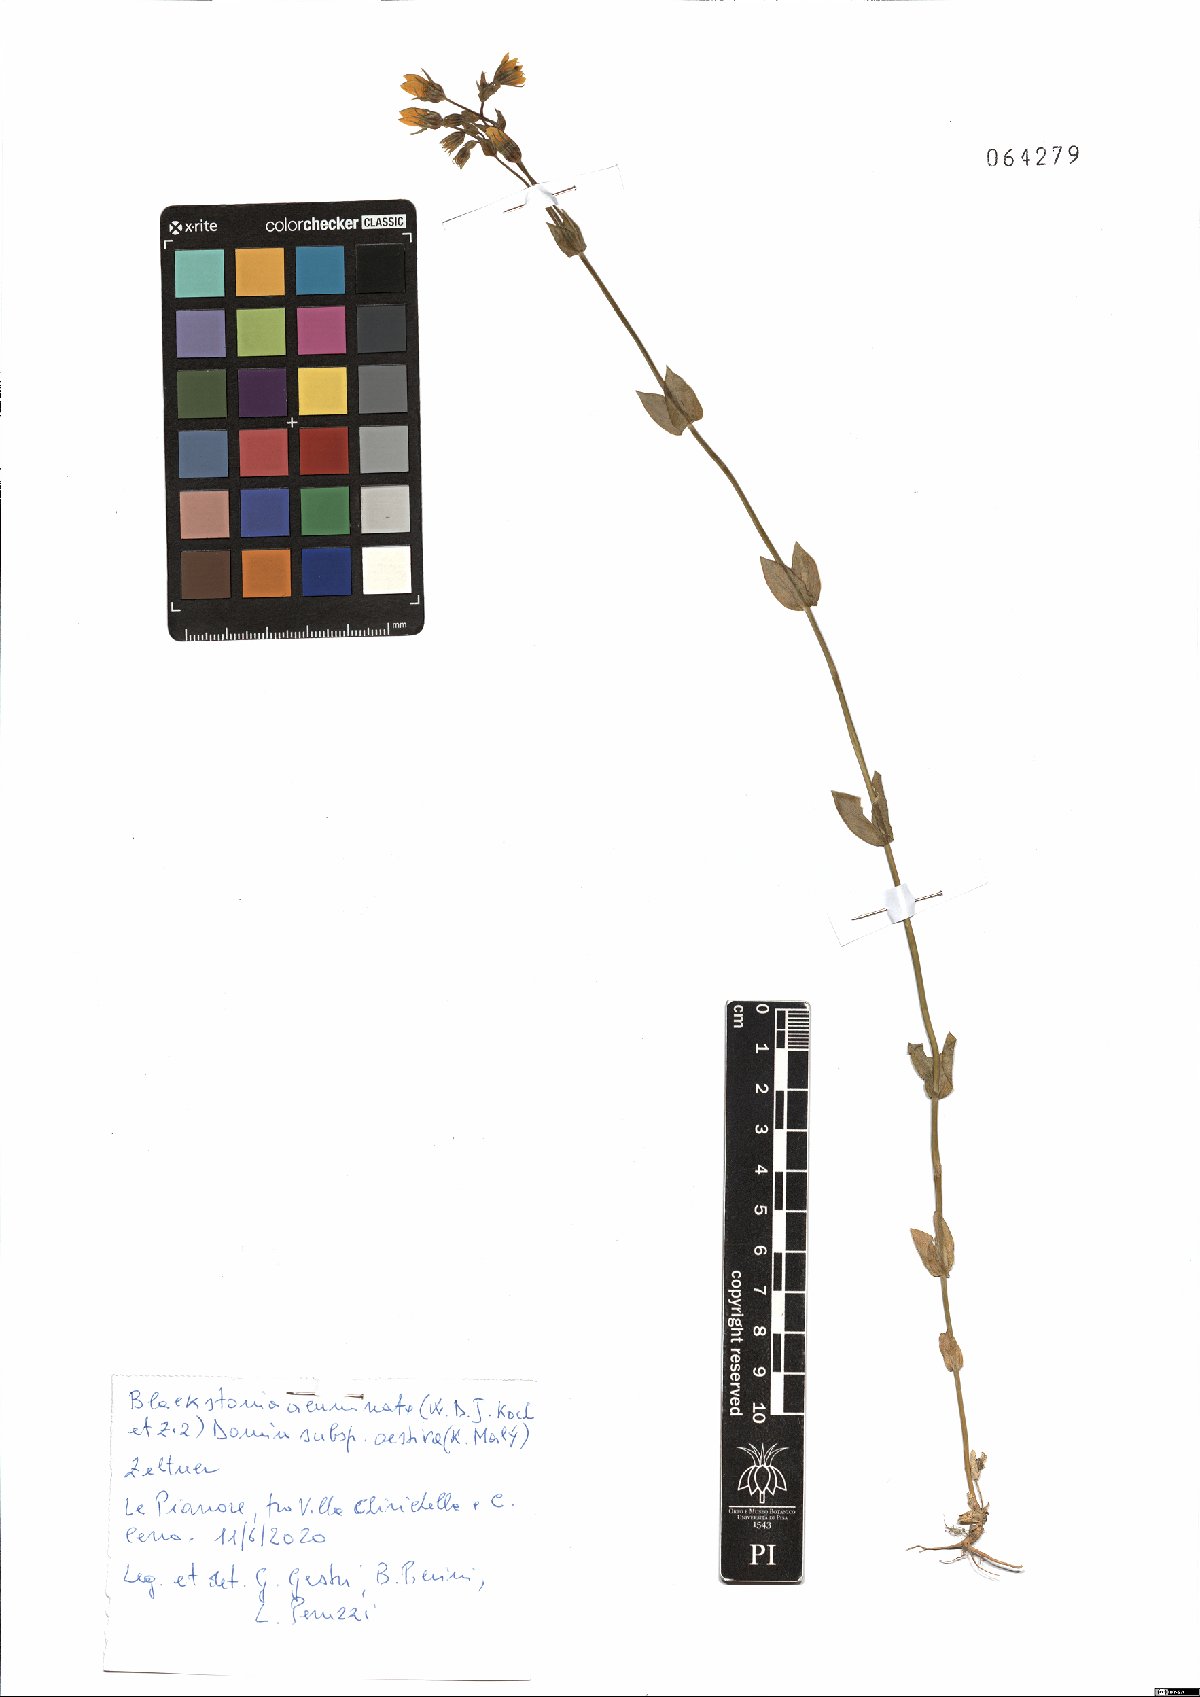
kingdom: Plantae
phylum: Tracheophyta
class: Magnoliopsida
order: Gentianales
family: Gentianaceae
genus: Blackstonia
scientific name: Blackstonia acuminata
